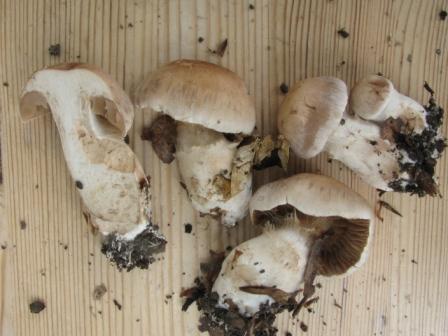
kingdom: Fungi
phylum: Basidiomycota
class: Agaricomycetes
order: Agaricales
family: Cortinariaceae
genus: Cortinarius
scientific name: Cortinarius urbicus
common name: sølv-slørhat
